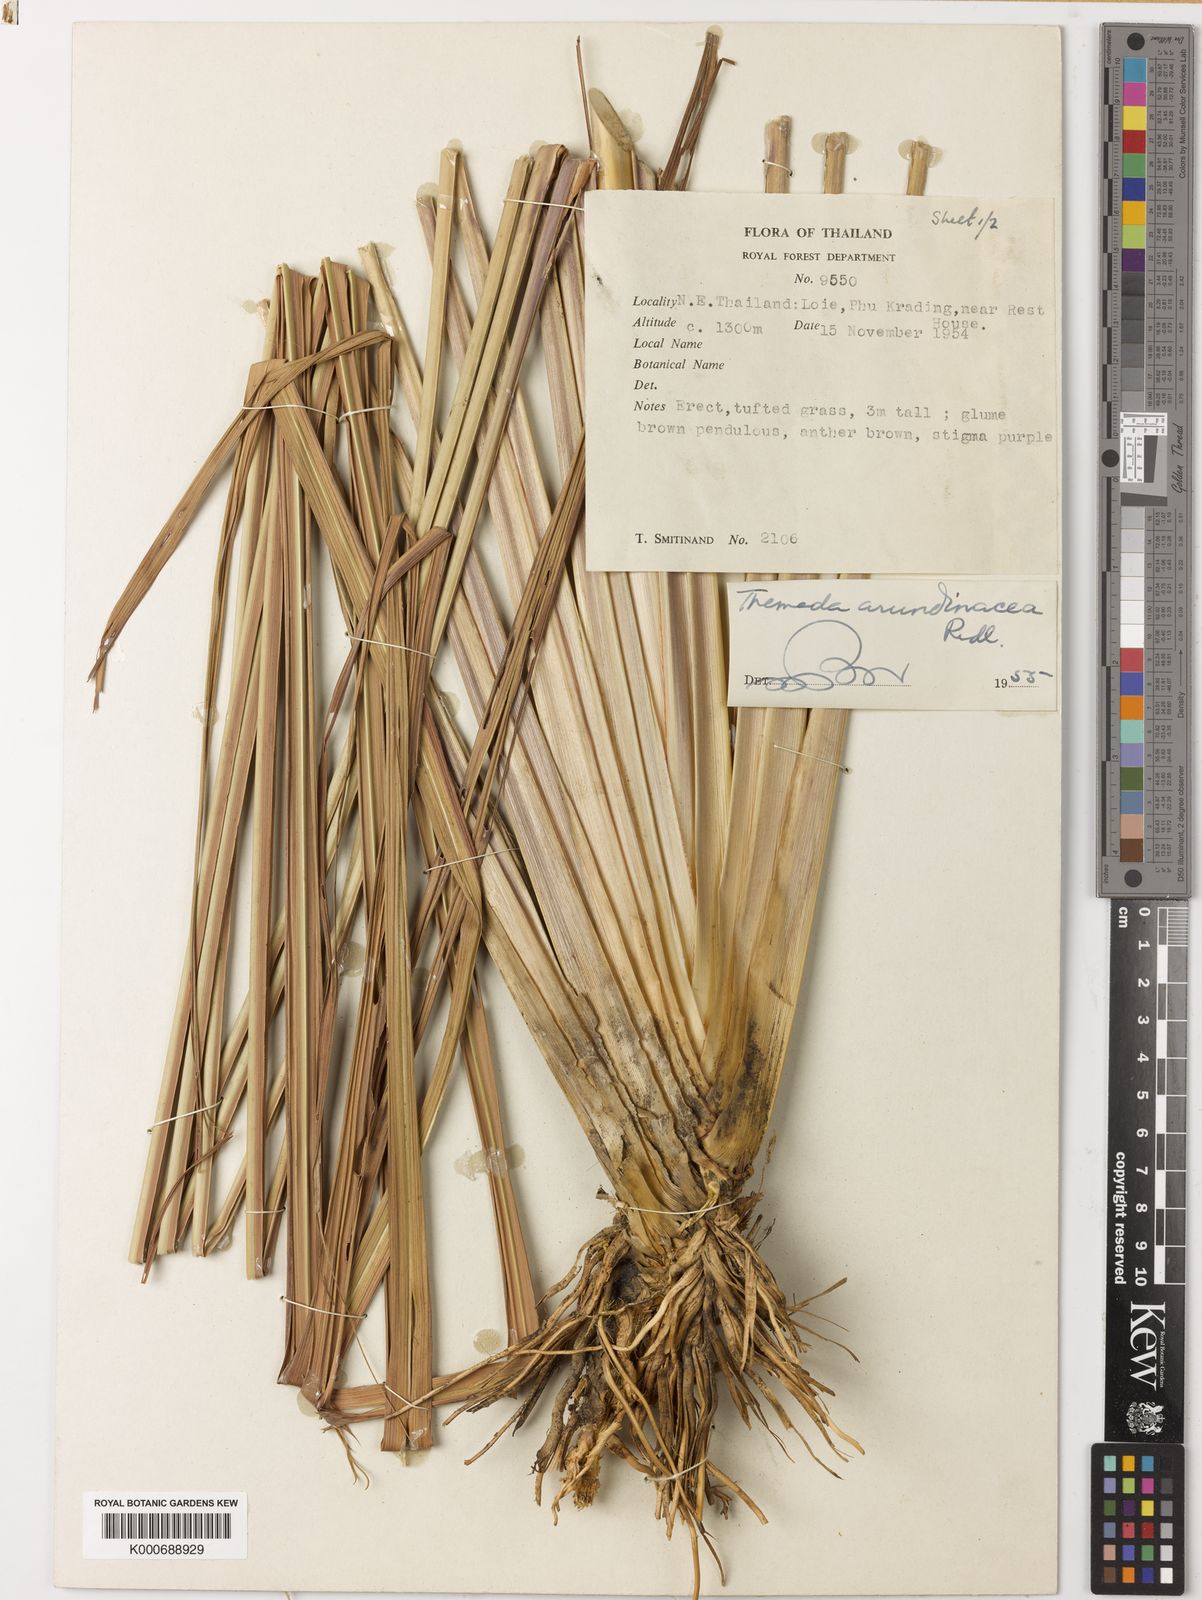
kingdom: Plantae
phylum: Tracheophyta
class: Liliopsida
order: Poales
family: Poaceae
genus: Themeda
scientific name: Themeda arundinacea
